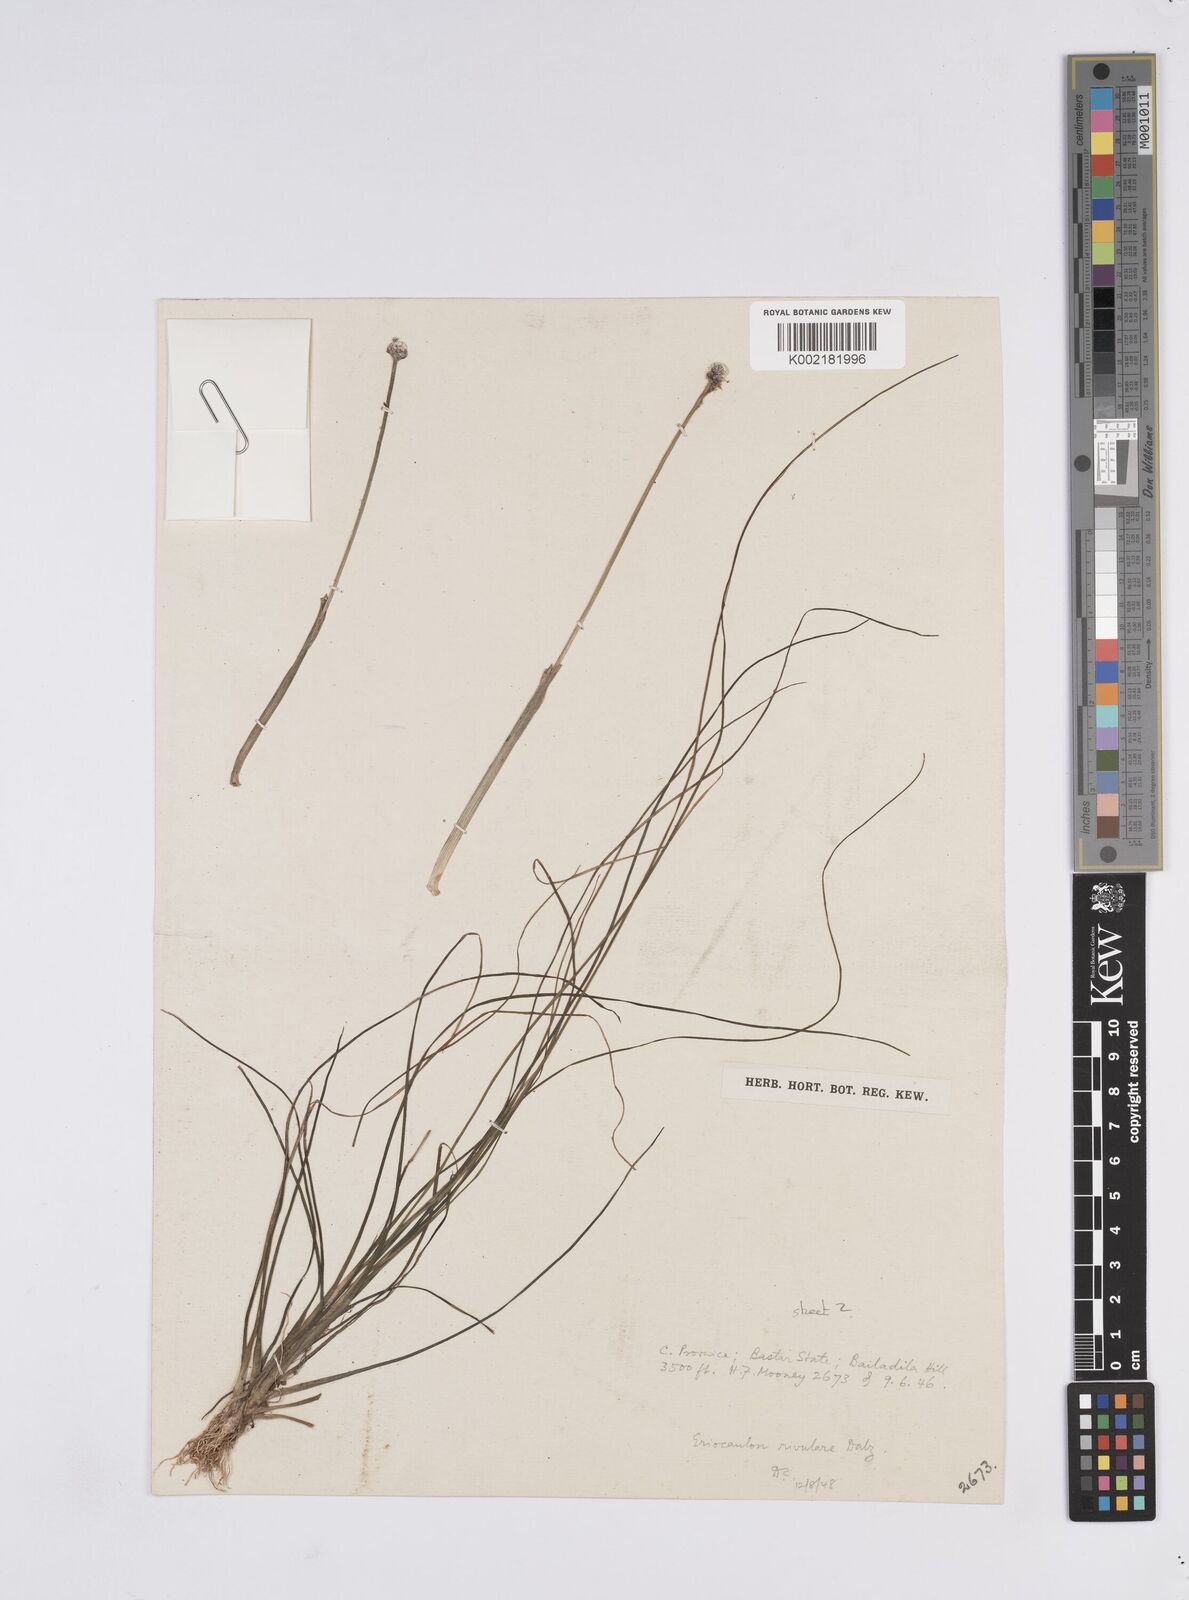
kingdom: Plantae
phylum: Tracheophyta
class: Liliopsida
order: Poales
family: Eriocaulaceae
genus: Eriocaulon
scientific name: Eriocaulon fluviatile
